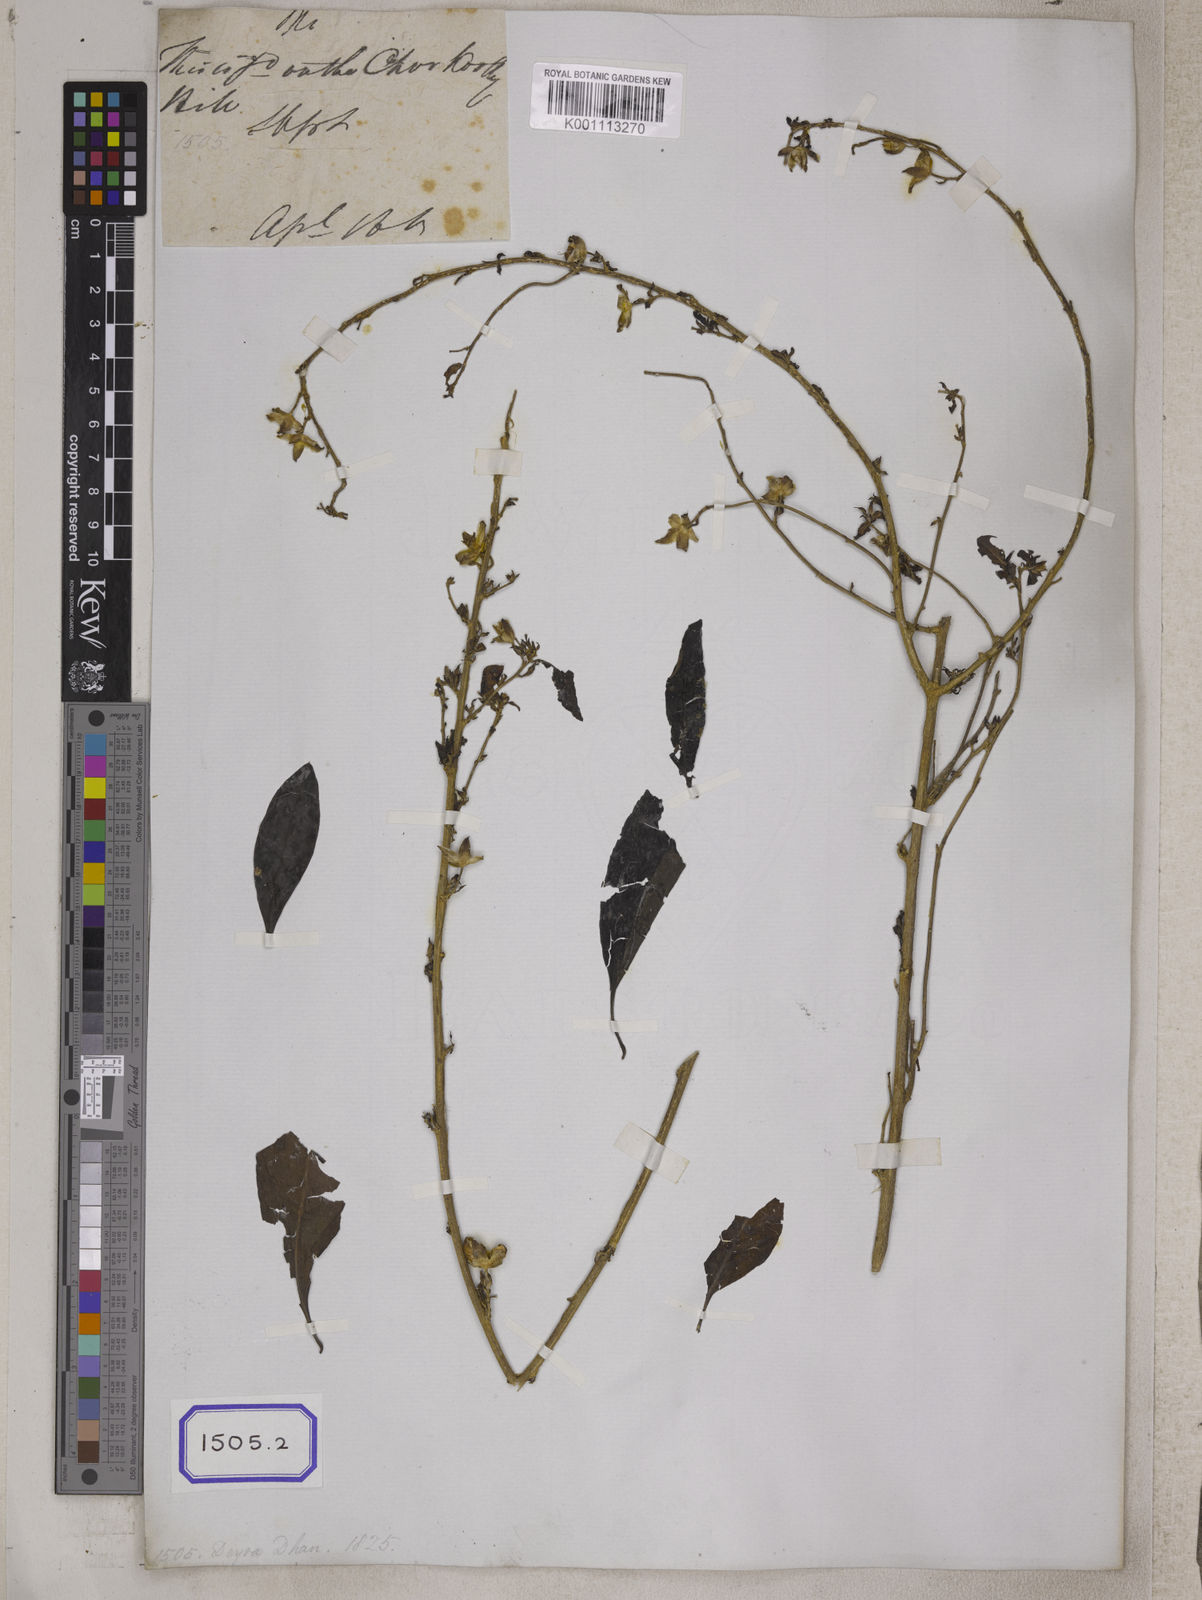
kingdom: Plantae
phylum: Tracheophyta
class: Magnoliopsida
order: Malpighiales
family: Linaceae
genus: Linum
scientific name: Linum
